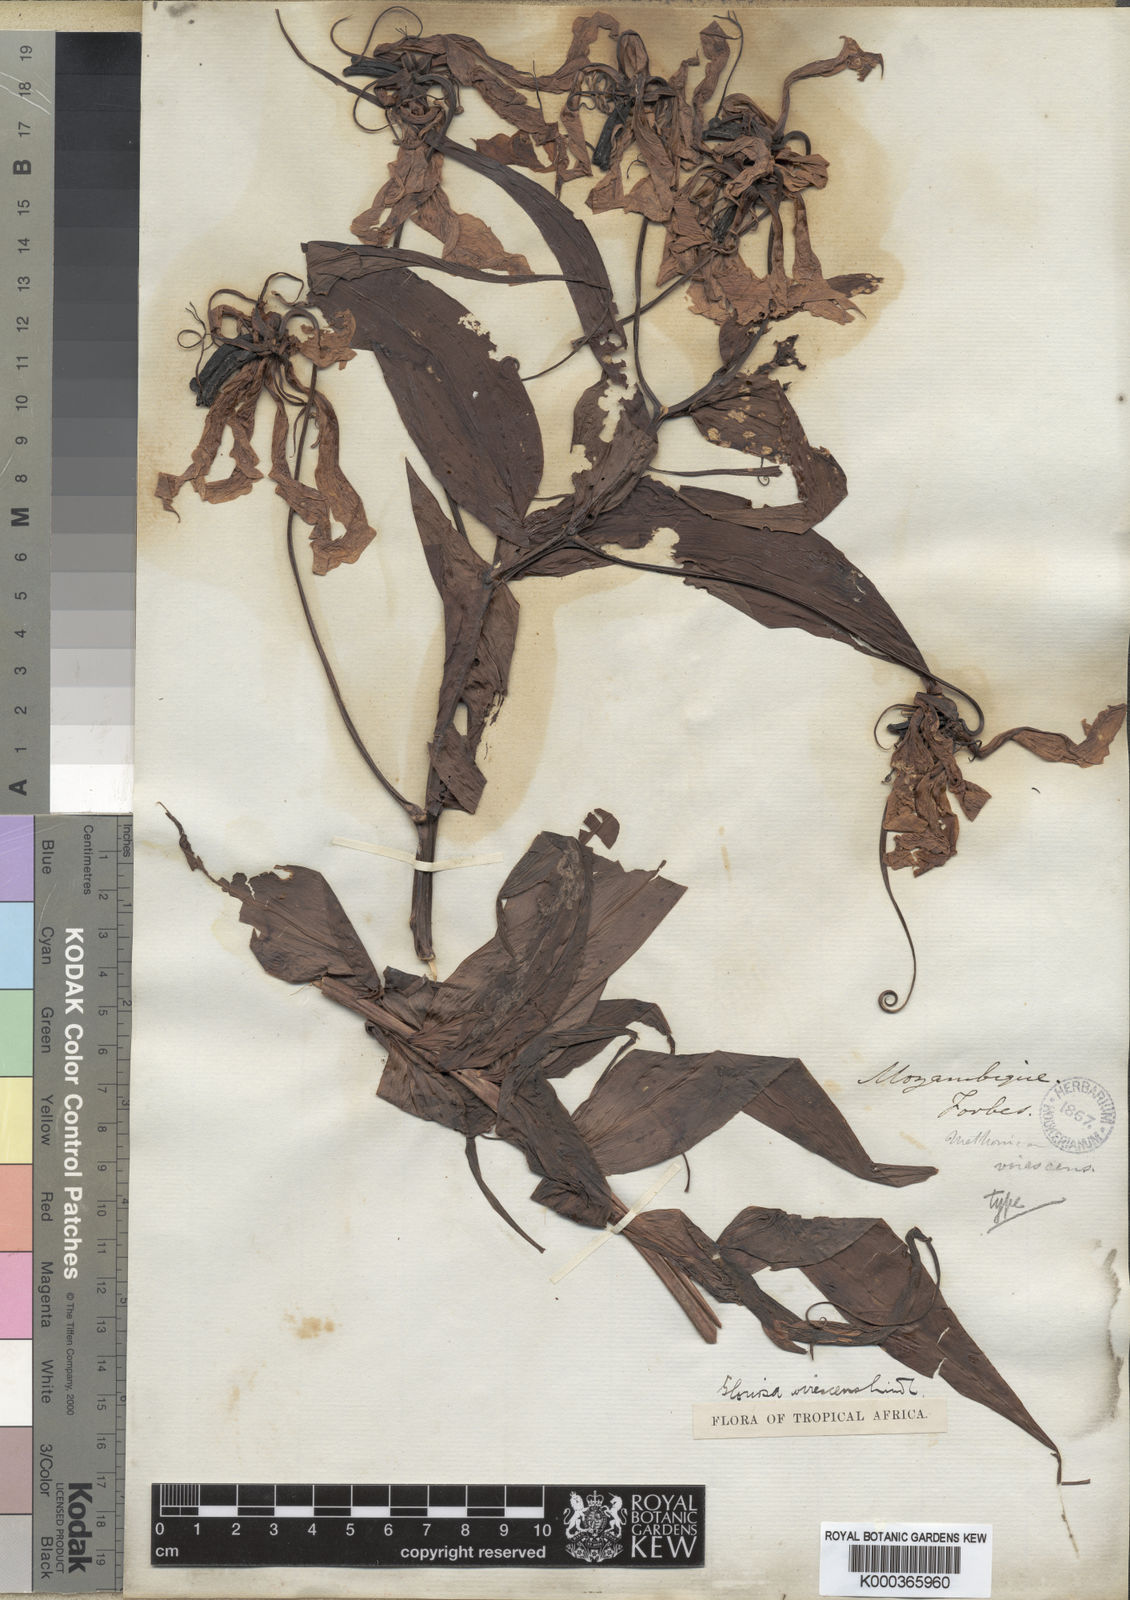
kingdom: Plantae
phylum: Tracheophyta
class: Liliopsida
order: Liliales
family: Colchicaceae
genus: Gloriosa
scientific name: Gloriosa simplex
